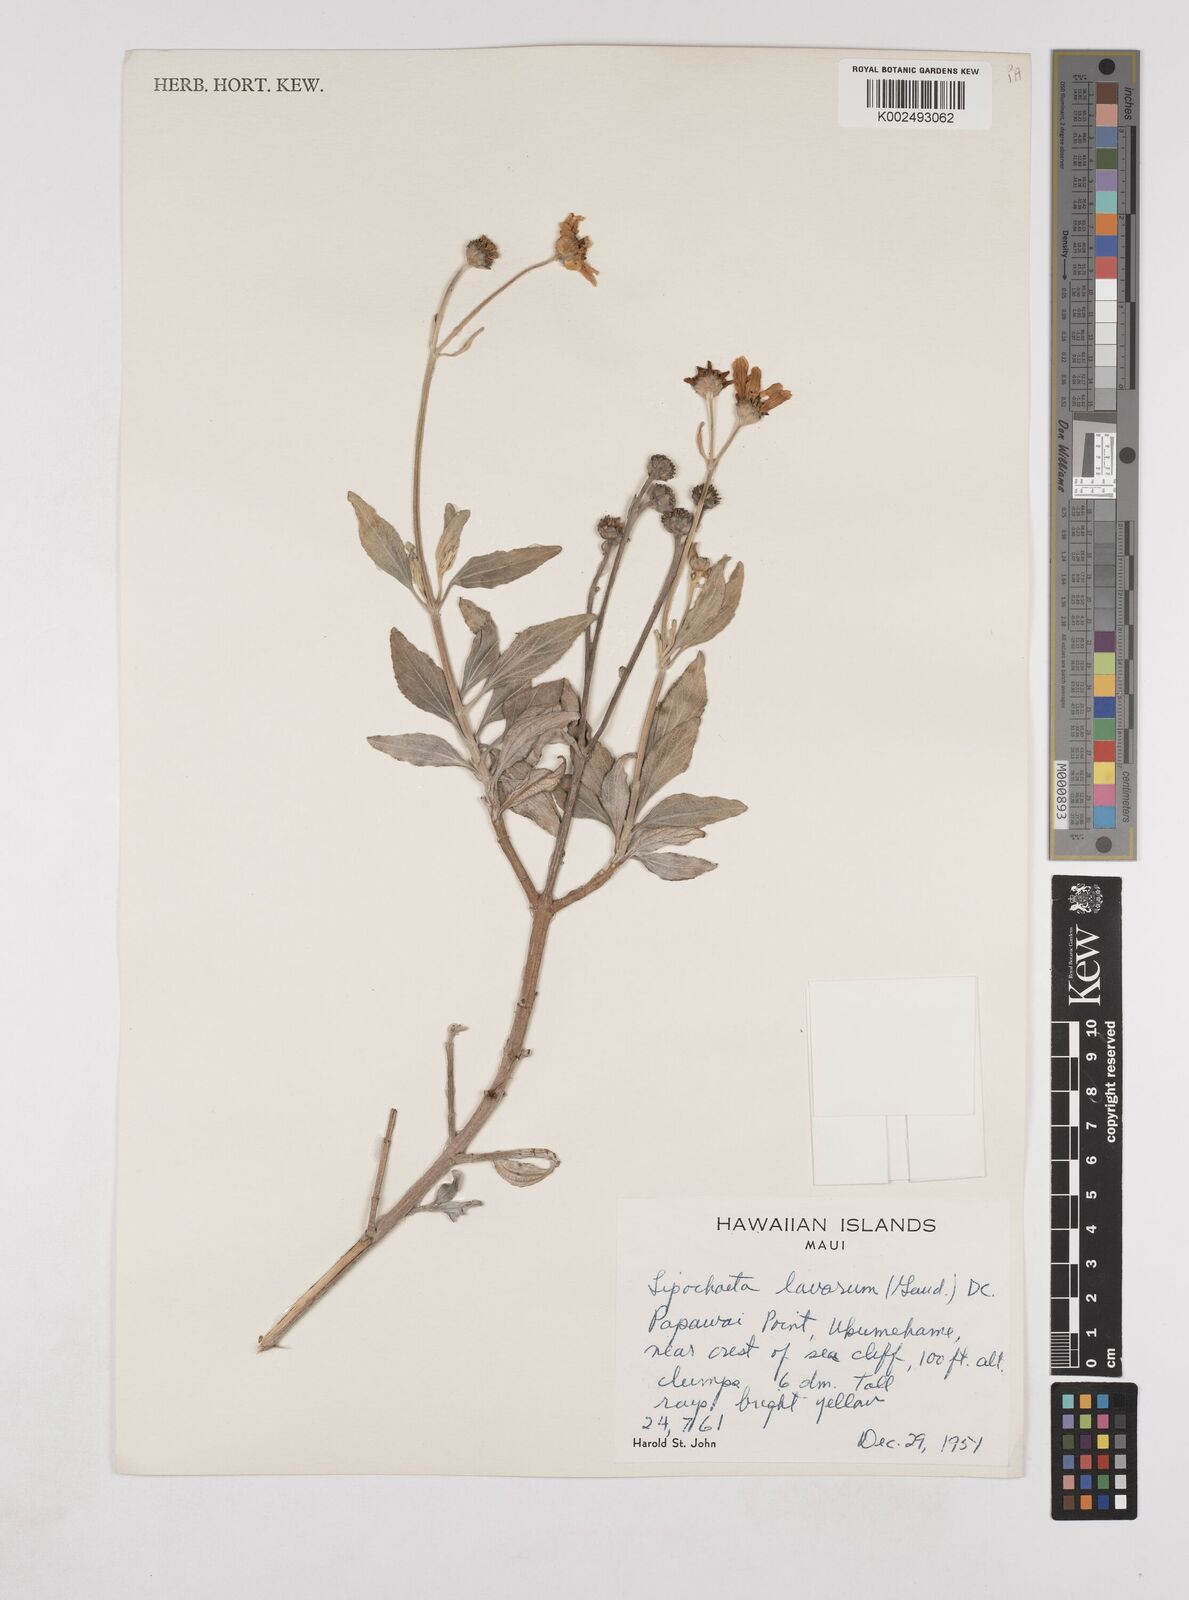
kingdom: Plantae
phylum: Tracheophyta
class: Magnoliopsida
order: Asterales
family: Asteraceae
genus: Lipochaeta
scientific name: Lipochaeta lavarum
